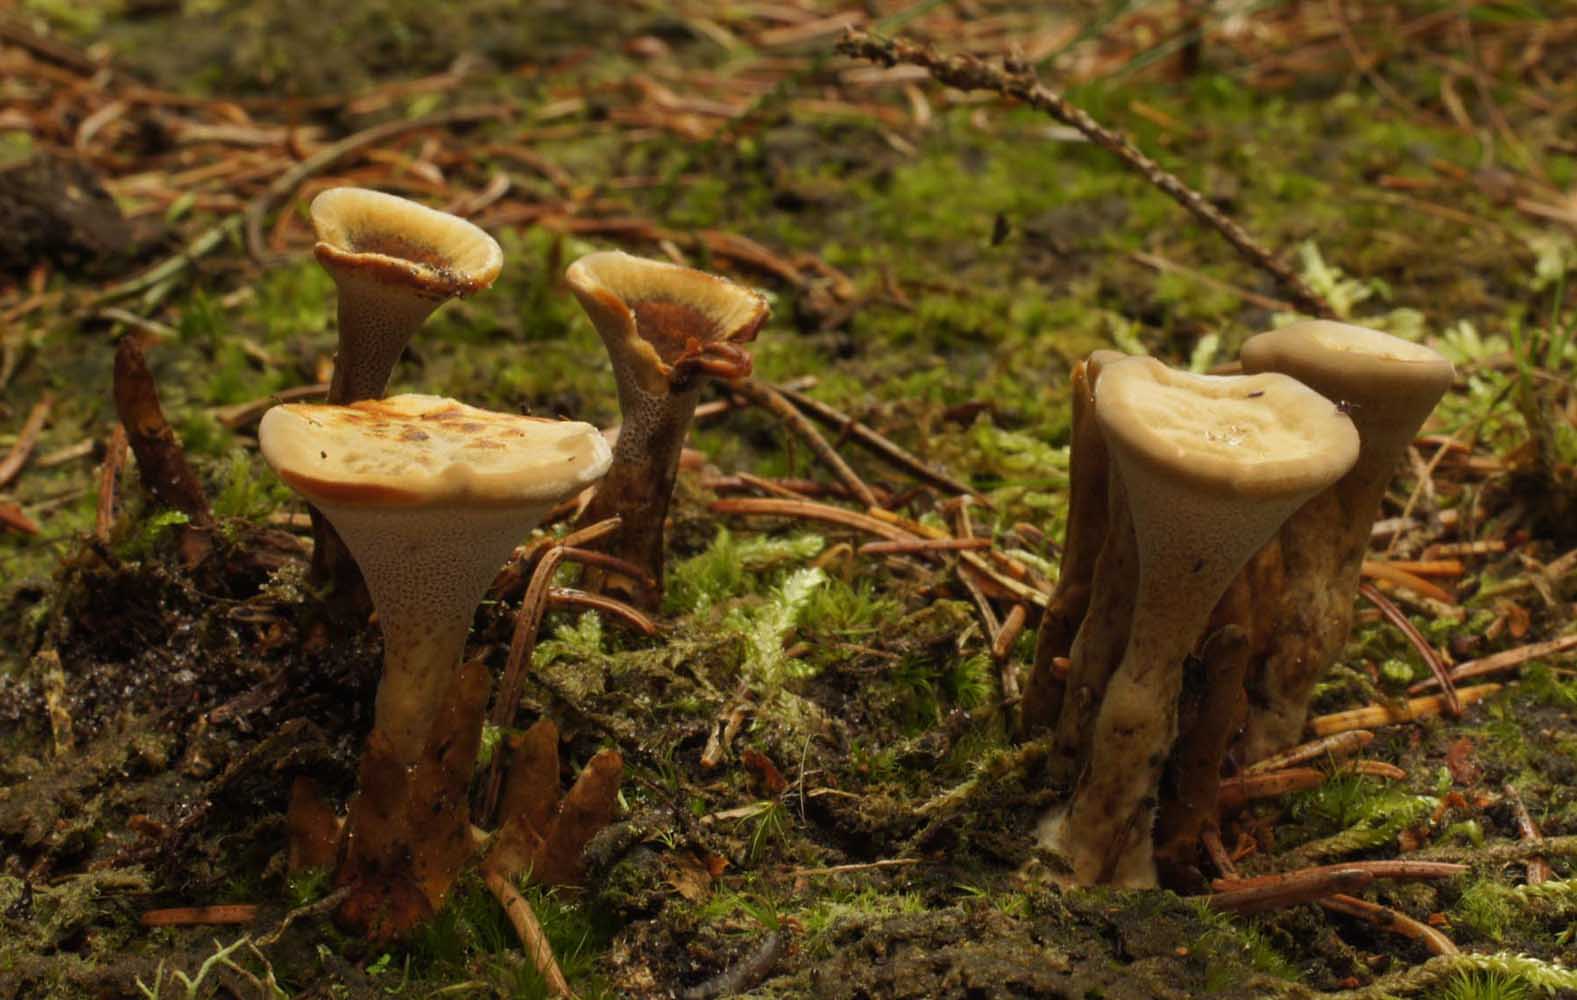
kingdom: Fungi
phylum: Basidiomycota
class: Agaricomycetes
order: Hymenochaetales
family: Hymenochaetaceae
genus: Coltricia
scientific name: Coltricia perennis
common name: almindelig sandporesvamp
